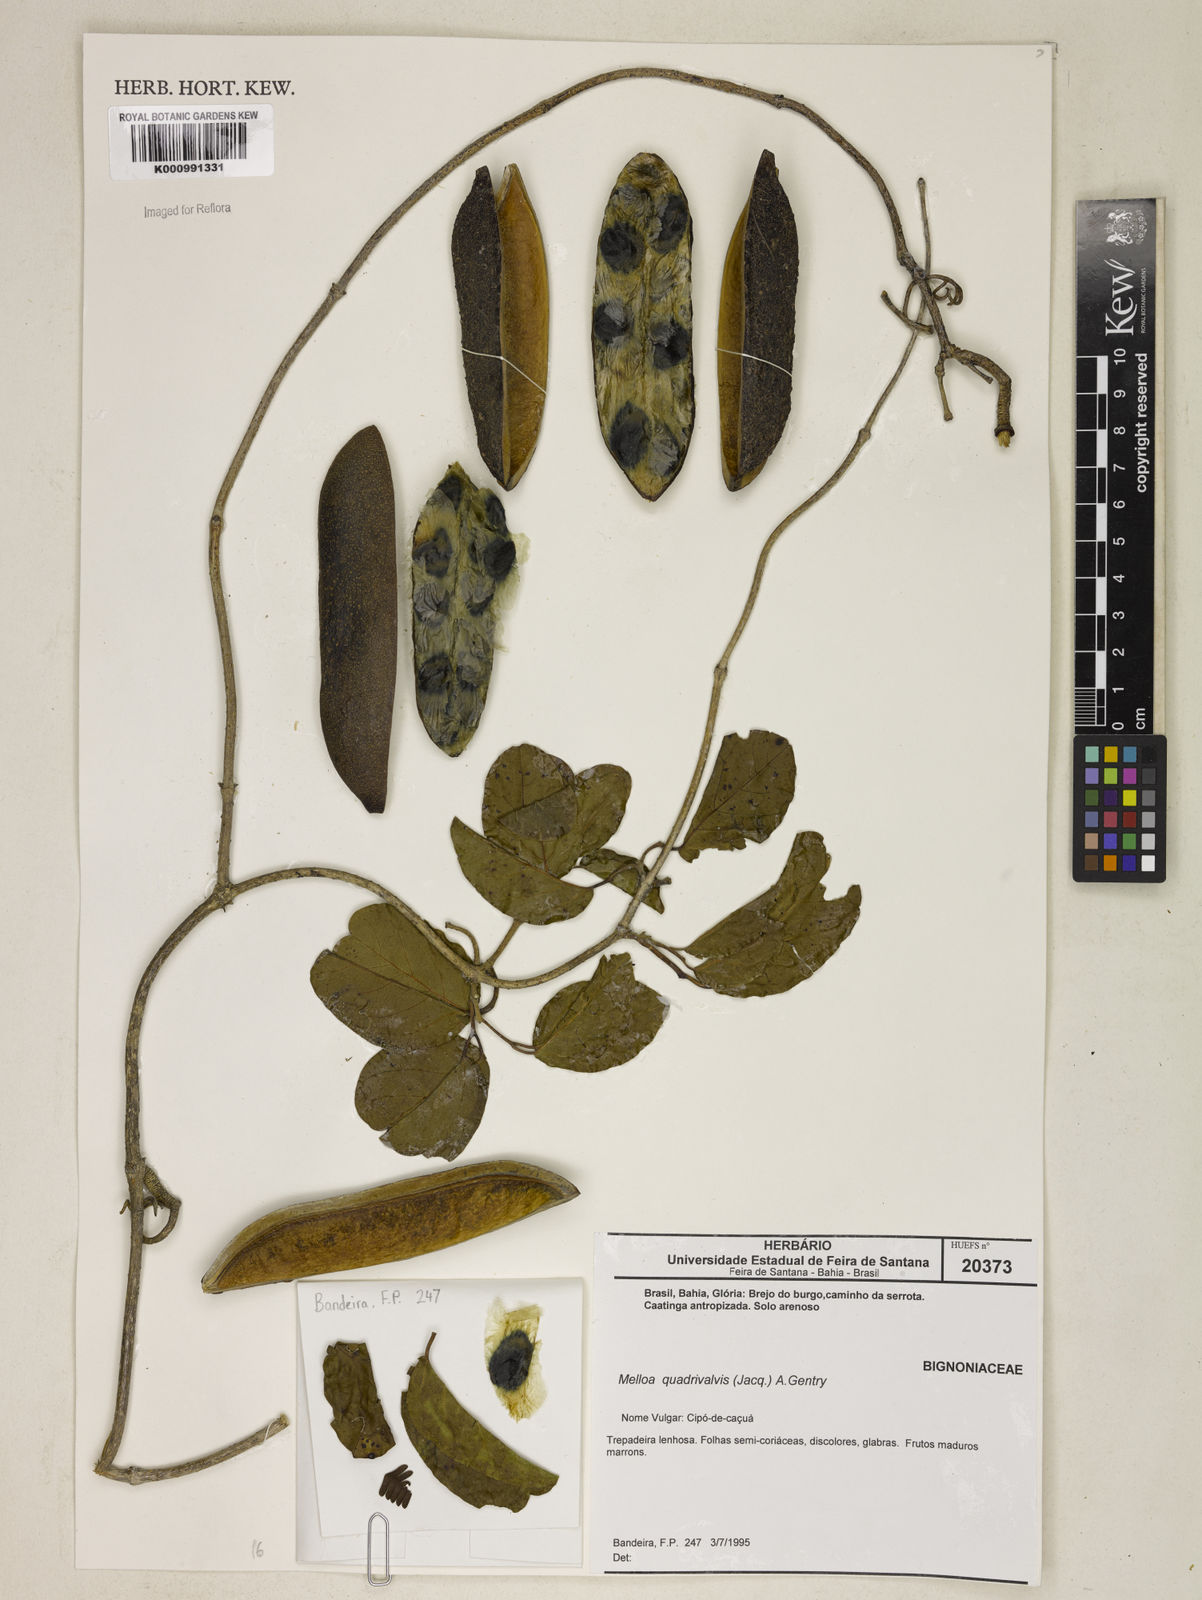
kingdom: Plantae
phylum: Tracheophyta
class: Magnoliopsida
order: Lamiales
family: Bignoniaceae
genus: Dolichandra
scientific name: Dolichandra quadrivalvis
